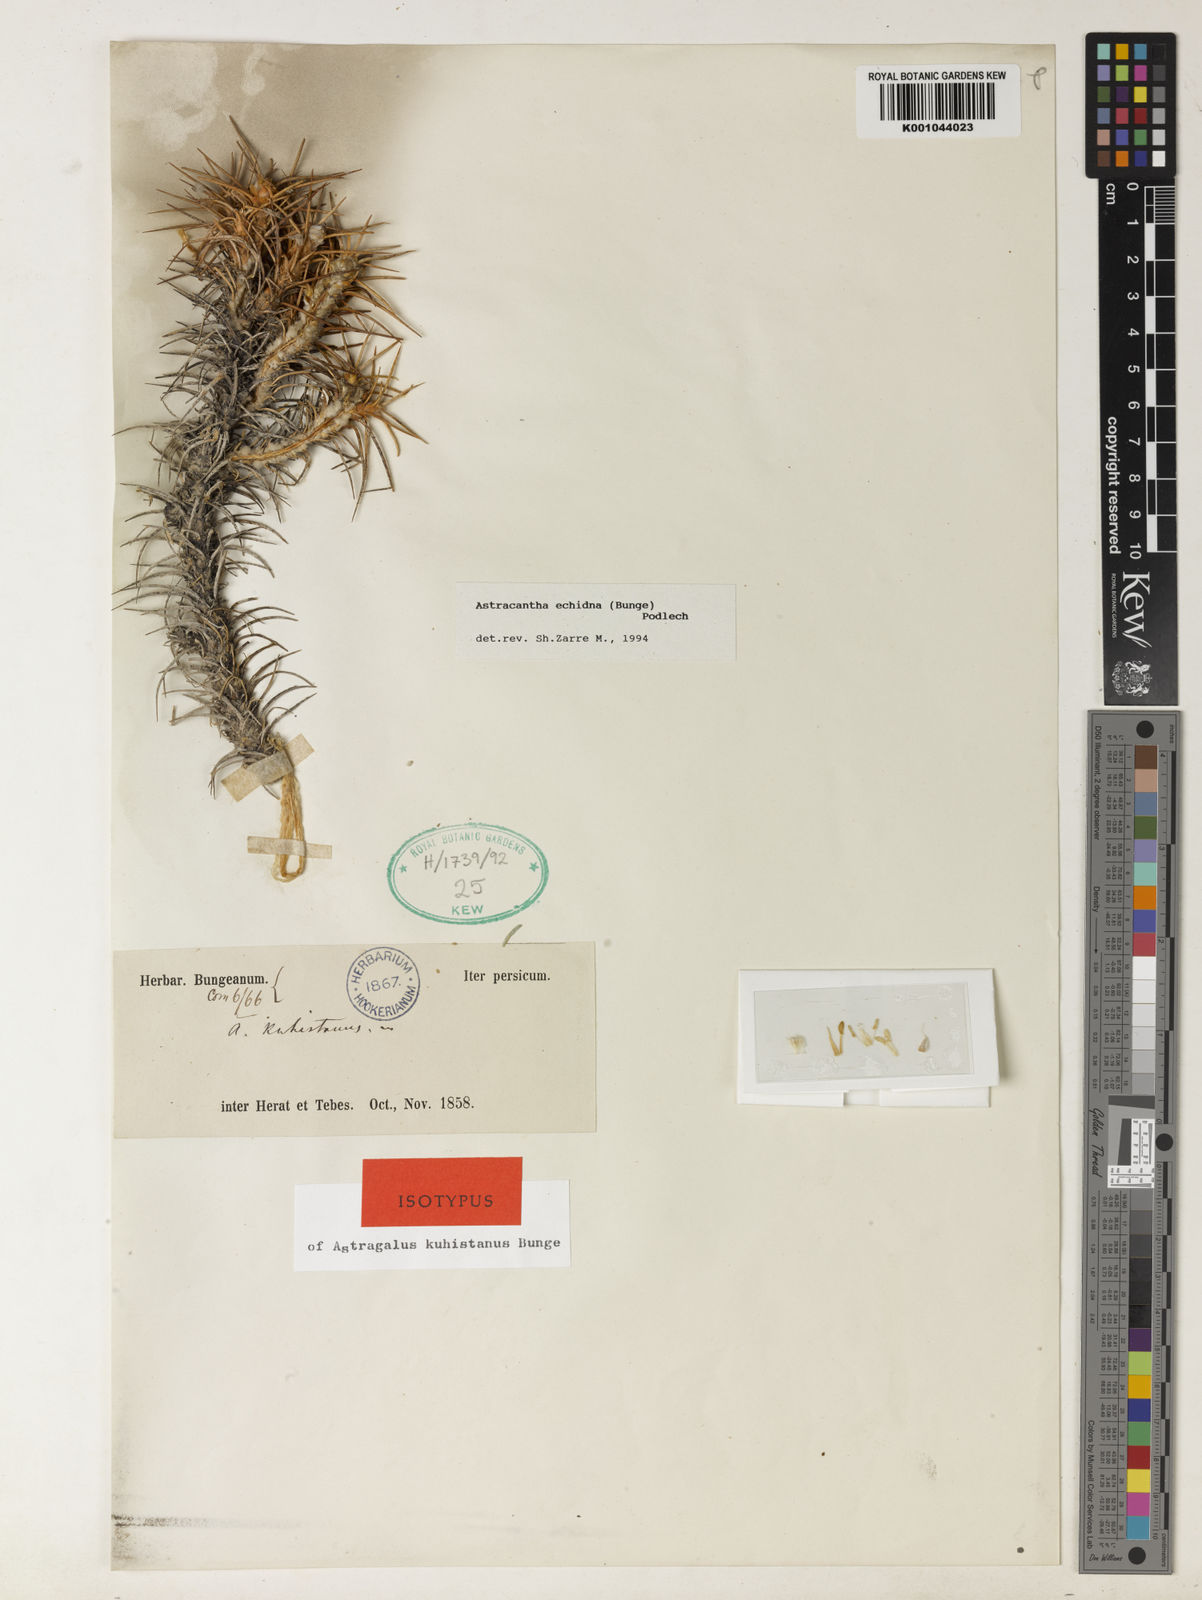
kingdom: Plantae
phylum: Tracheophyta
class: Magnoliopsida
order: Fabales
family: Fabaceae
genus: Astragalus
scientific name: Astragalus echidna
